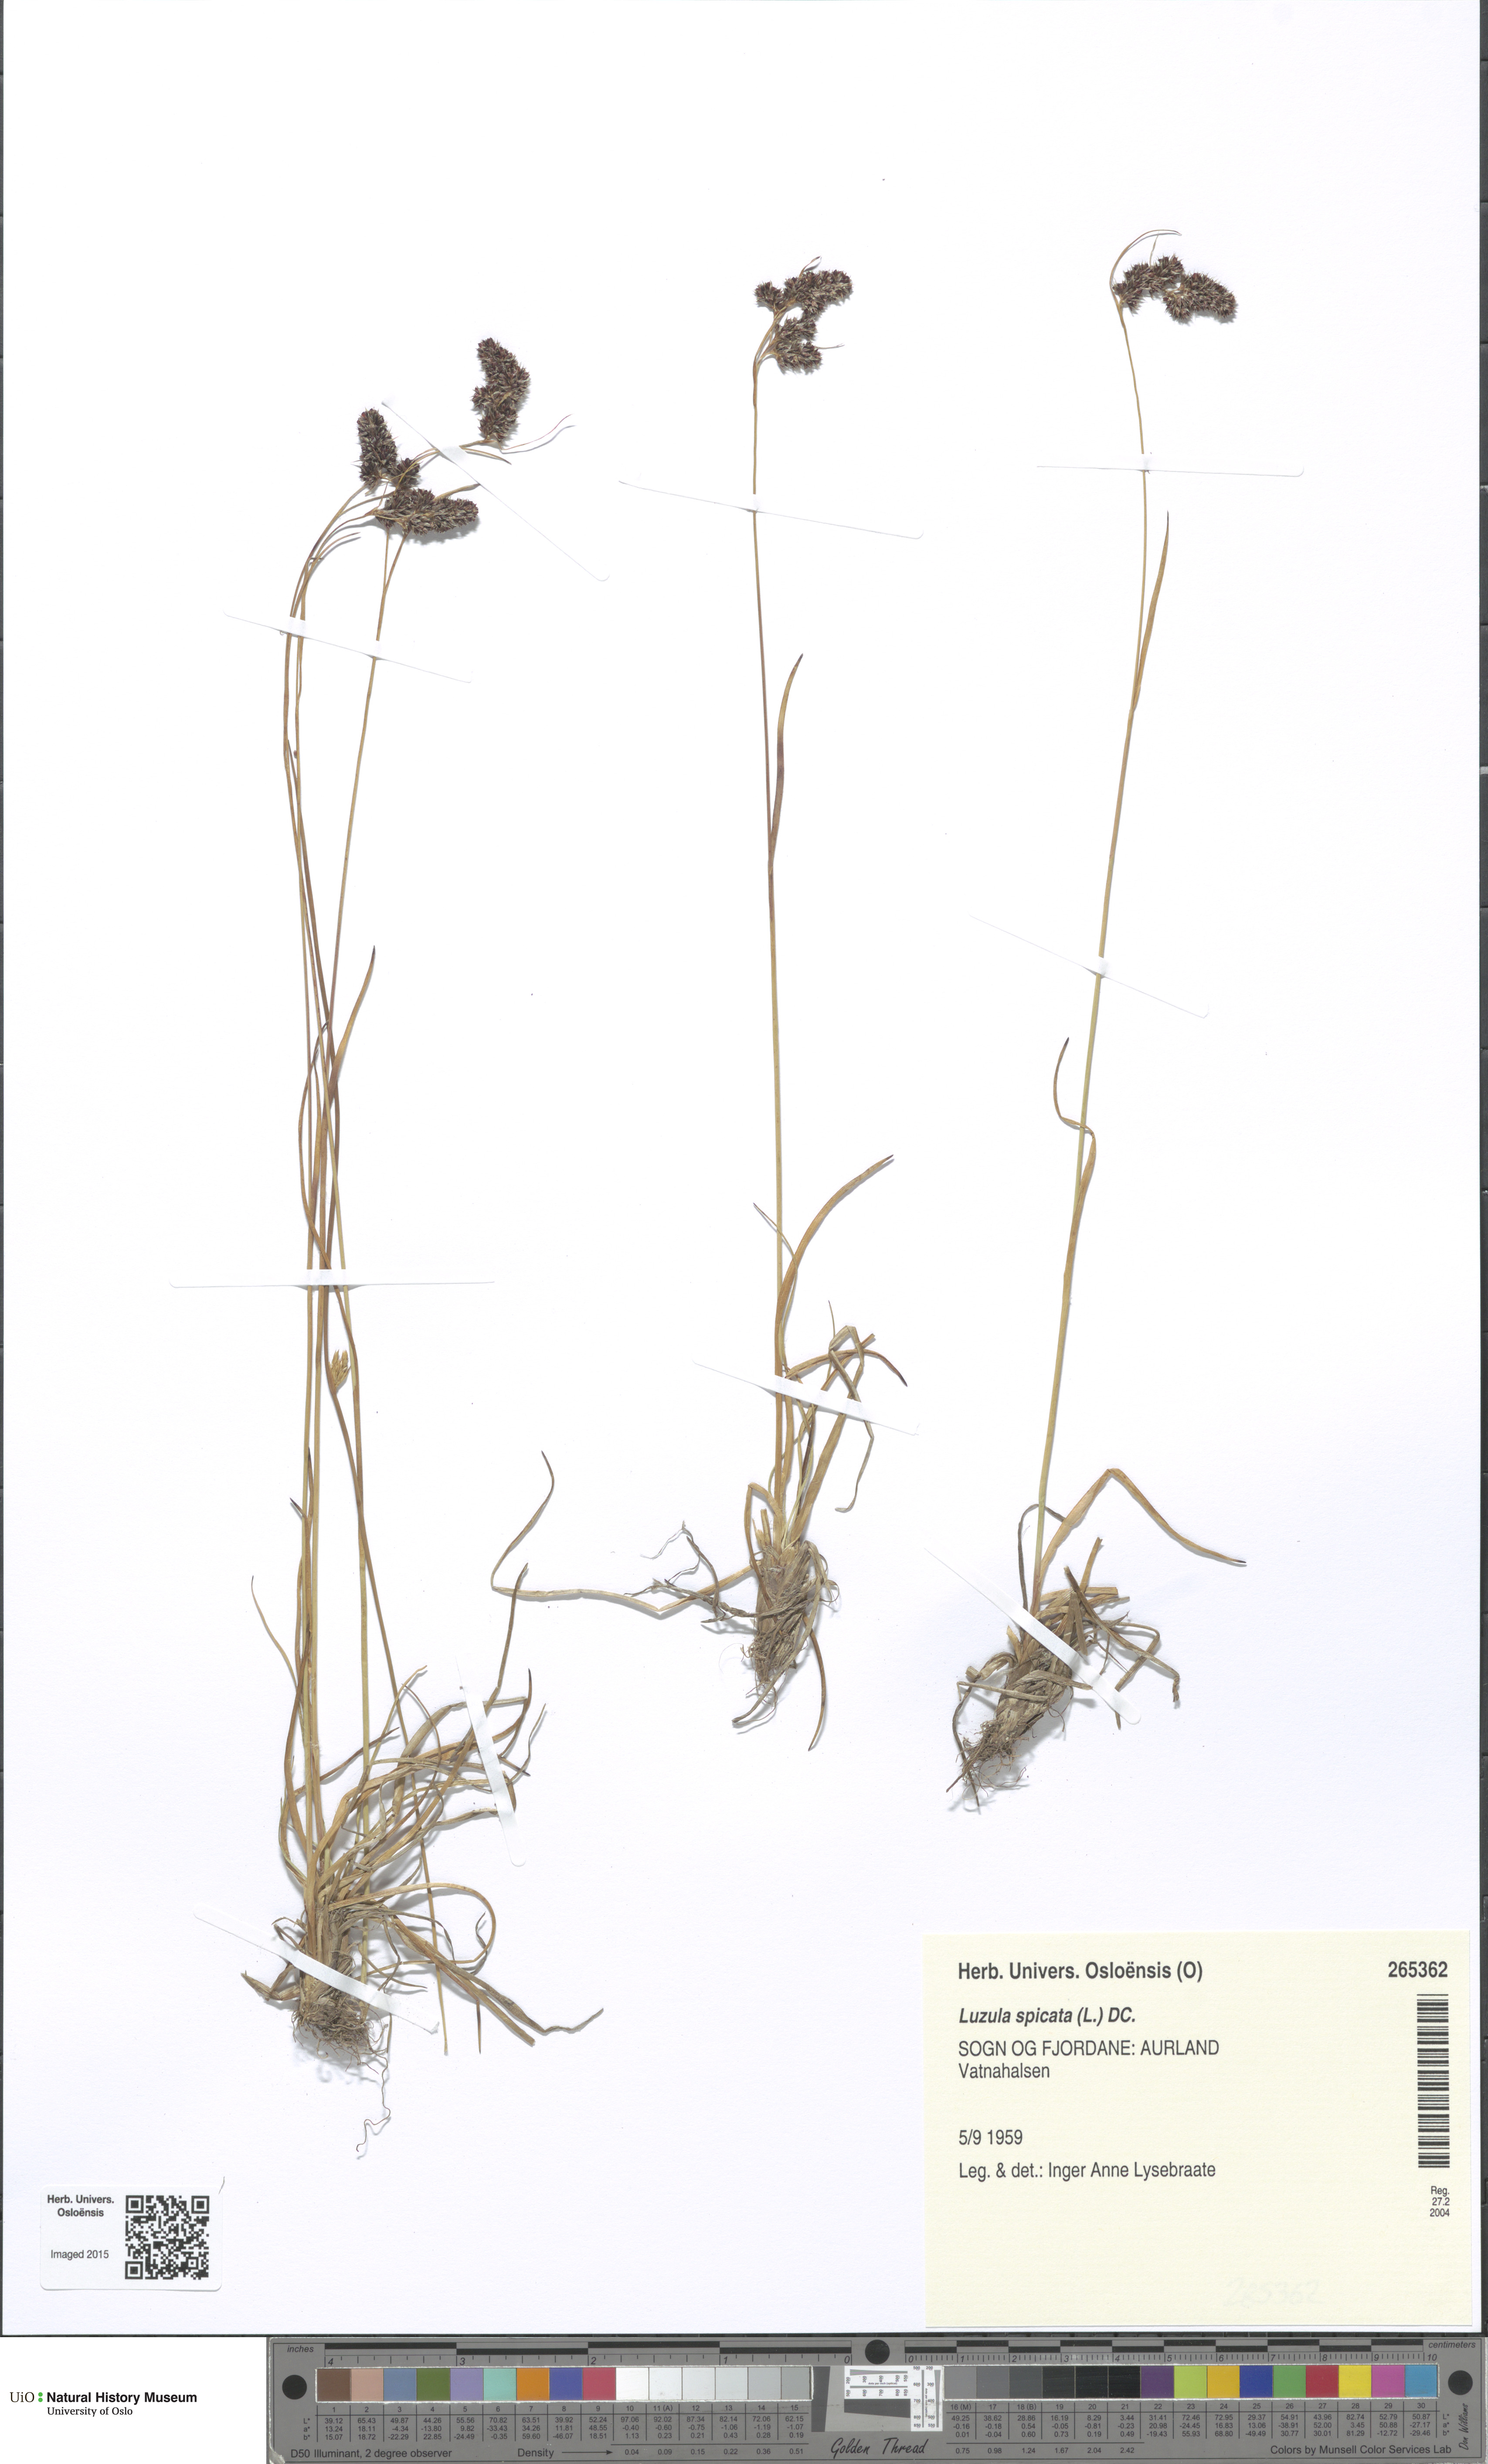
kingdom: Plantae
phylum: Tracheophyta
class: Liliopsida
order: Poales
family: Juncaceae
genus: Luzula
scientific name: Luzula spicata
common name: Spiked wood-rush
